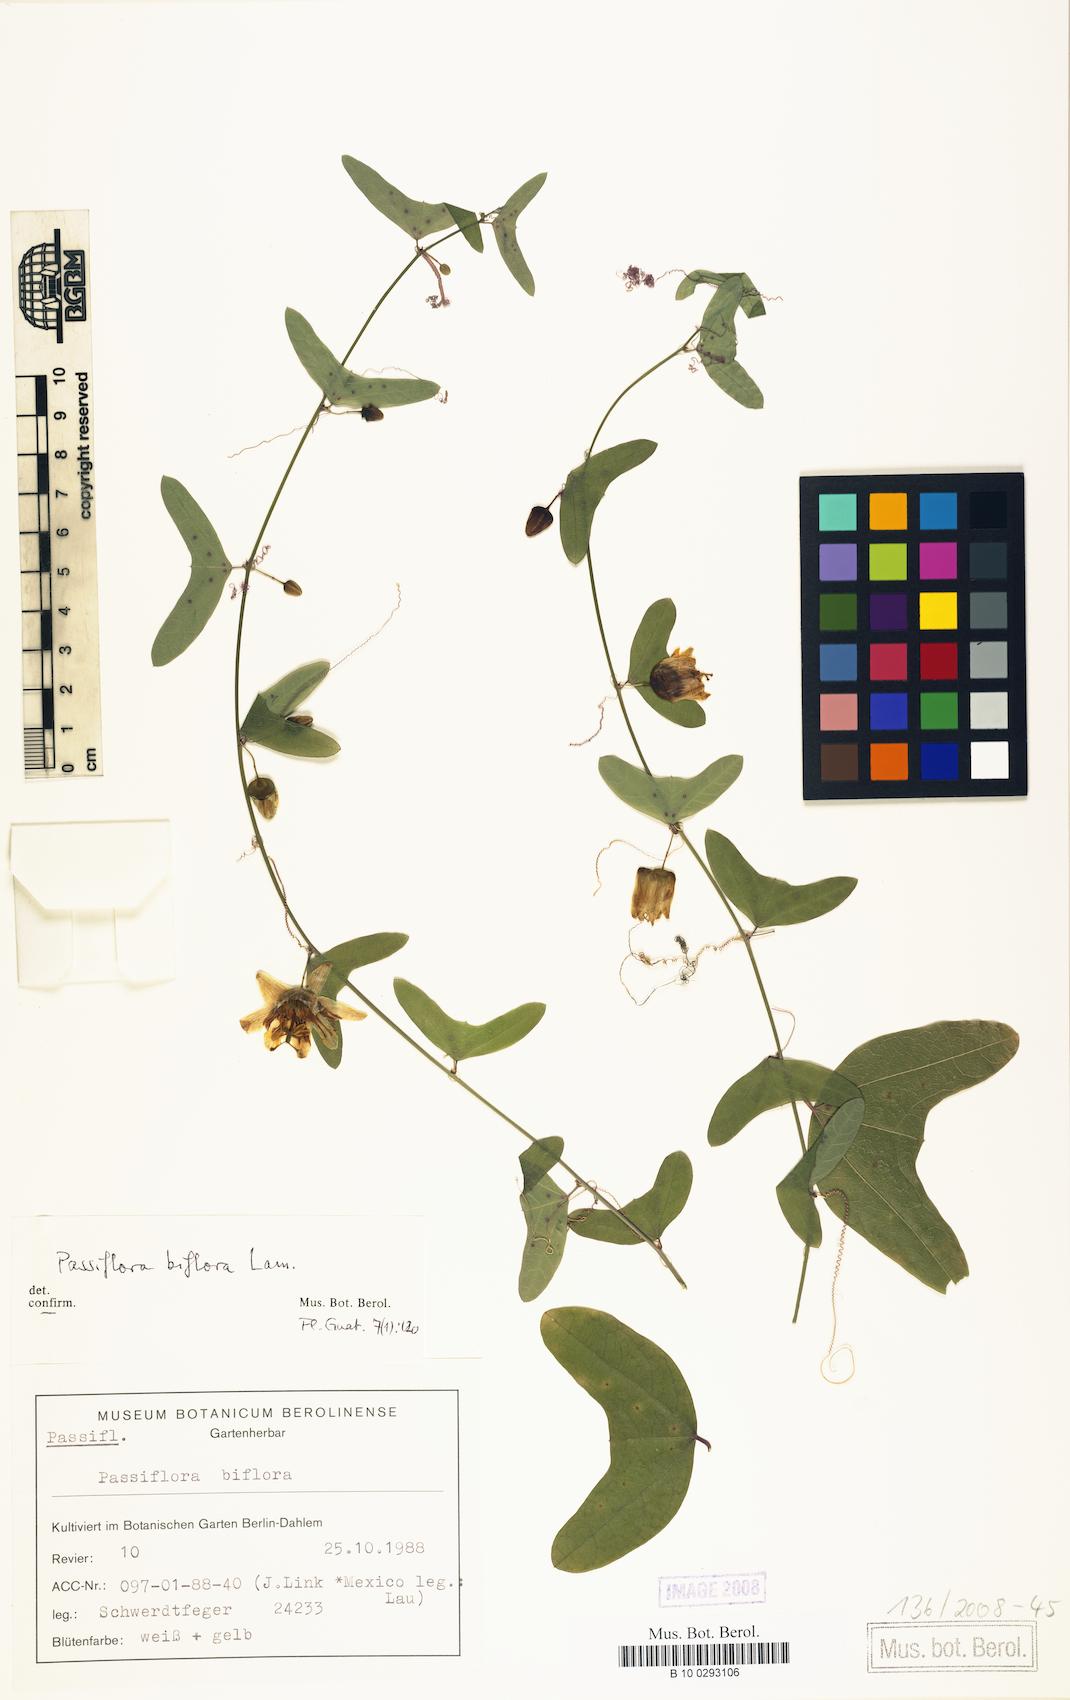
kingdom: Plantae
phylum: Tracheophyta
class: Magnoliopsida
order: Malpighiales
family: Passifloraceae
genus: Passiflora
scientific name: Passiflora biflora
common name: Twoflower passionflower
